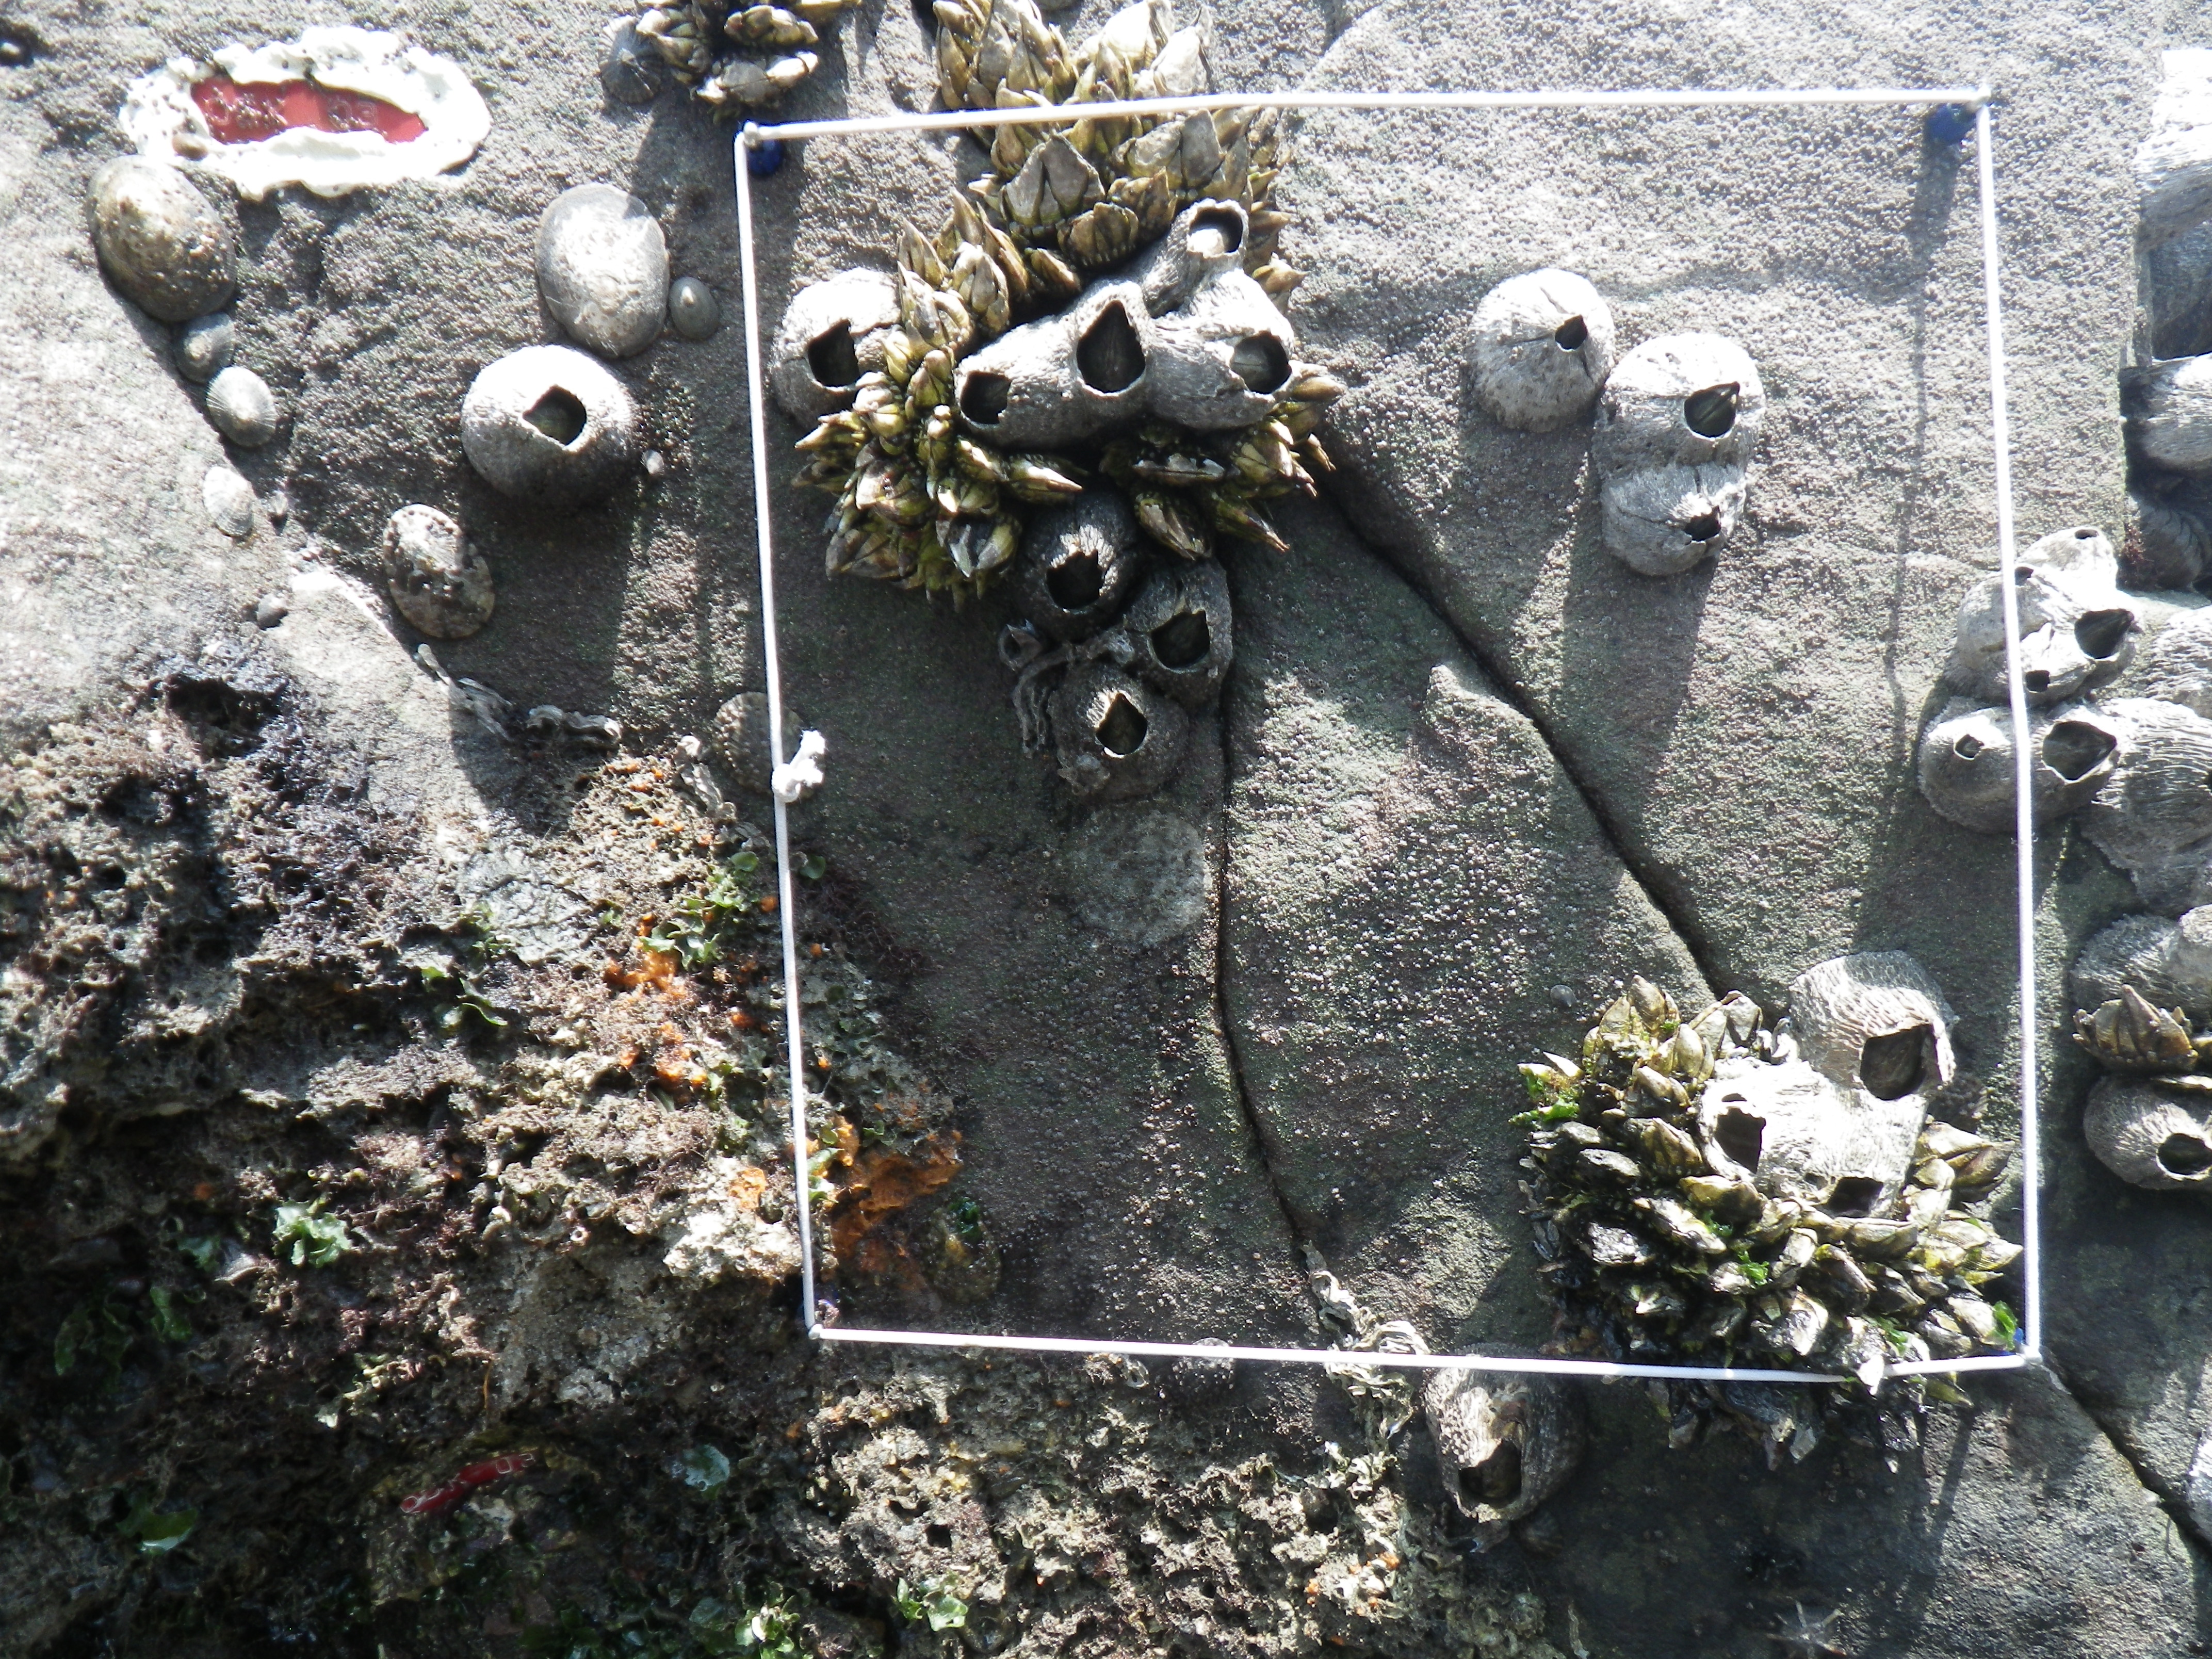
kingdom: Animalia
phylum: Arthropoda
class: Maxillopoda
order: Sessilia
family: Chthamalidae
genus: Chthamalus
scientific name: Chthamalus challengeri
